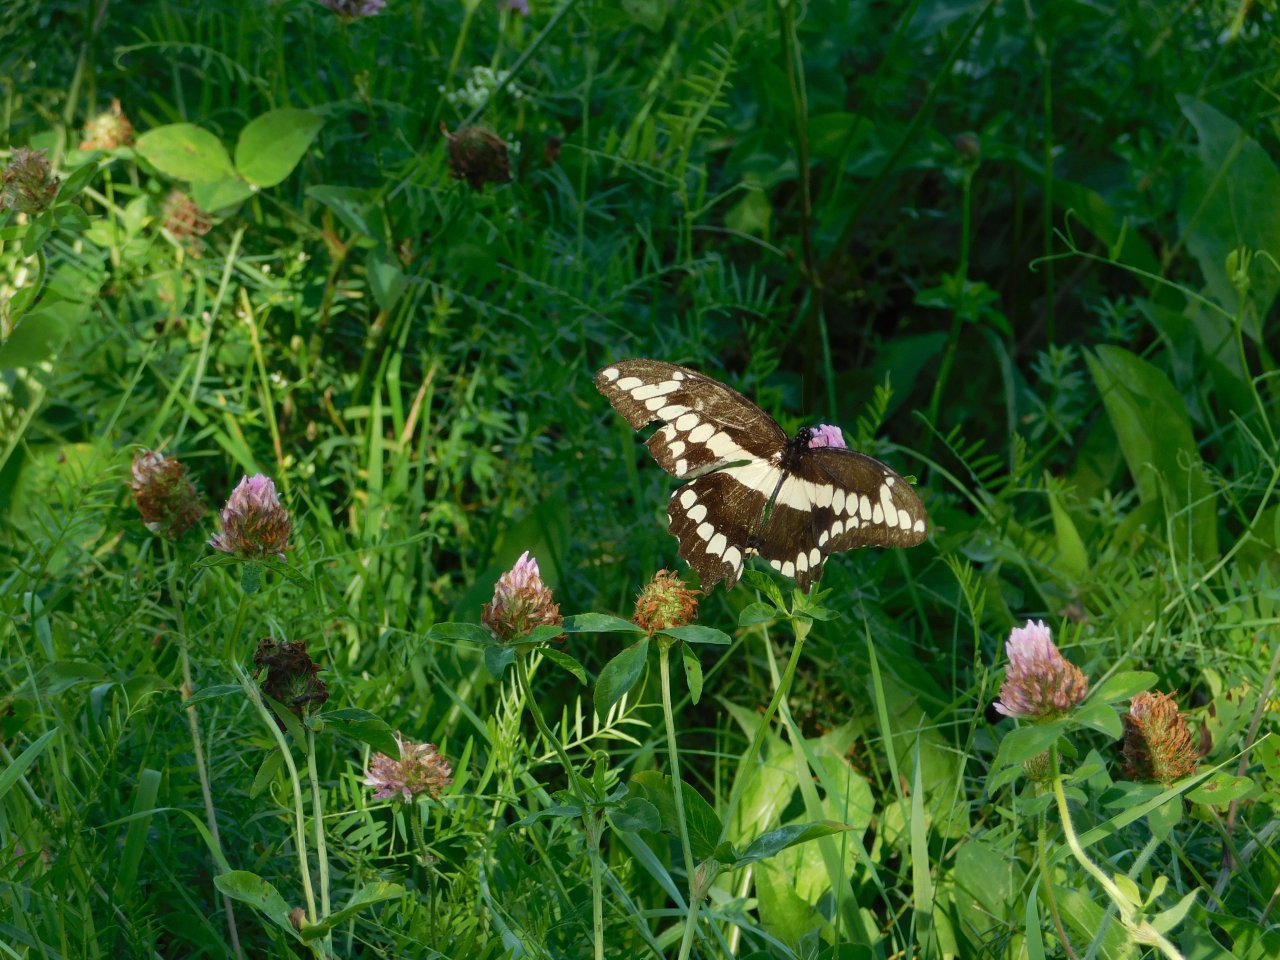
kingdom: Animalia
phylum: Arthropoda
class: Insecta
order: Lepidoptera
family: Papilionidae
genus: Papilio
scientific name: Papilio cresphontes
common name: Eastern Giant Swallowtail
